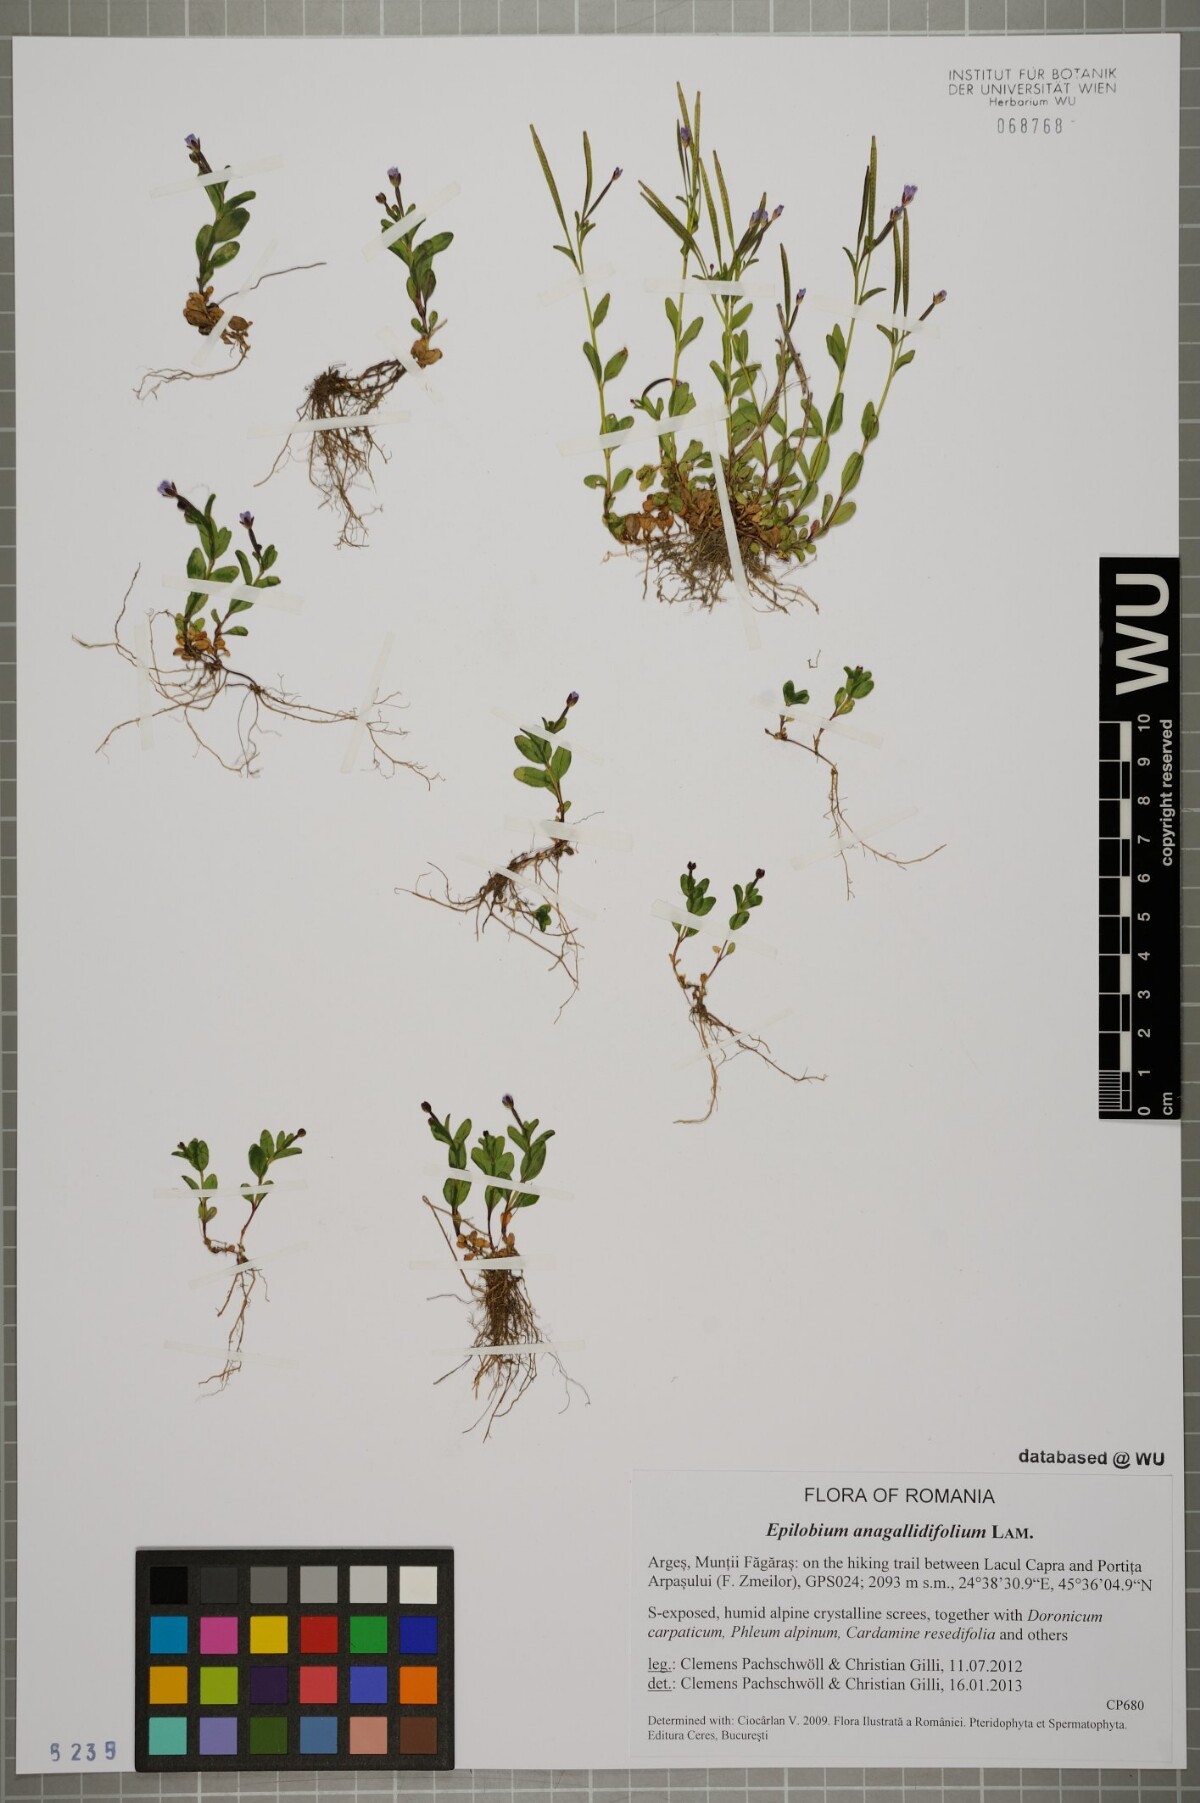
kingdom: Plantae
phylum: Tracheophyta
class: Magnoliopsida
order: Myrtales
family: Onagraceae
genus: Epilobium
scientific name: Epilobium anagallidifolium
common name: Alpine willowherb
